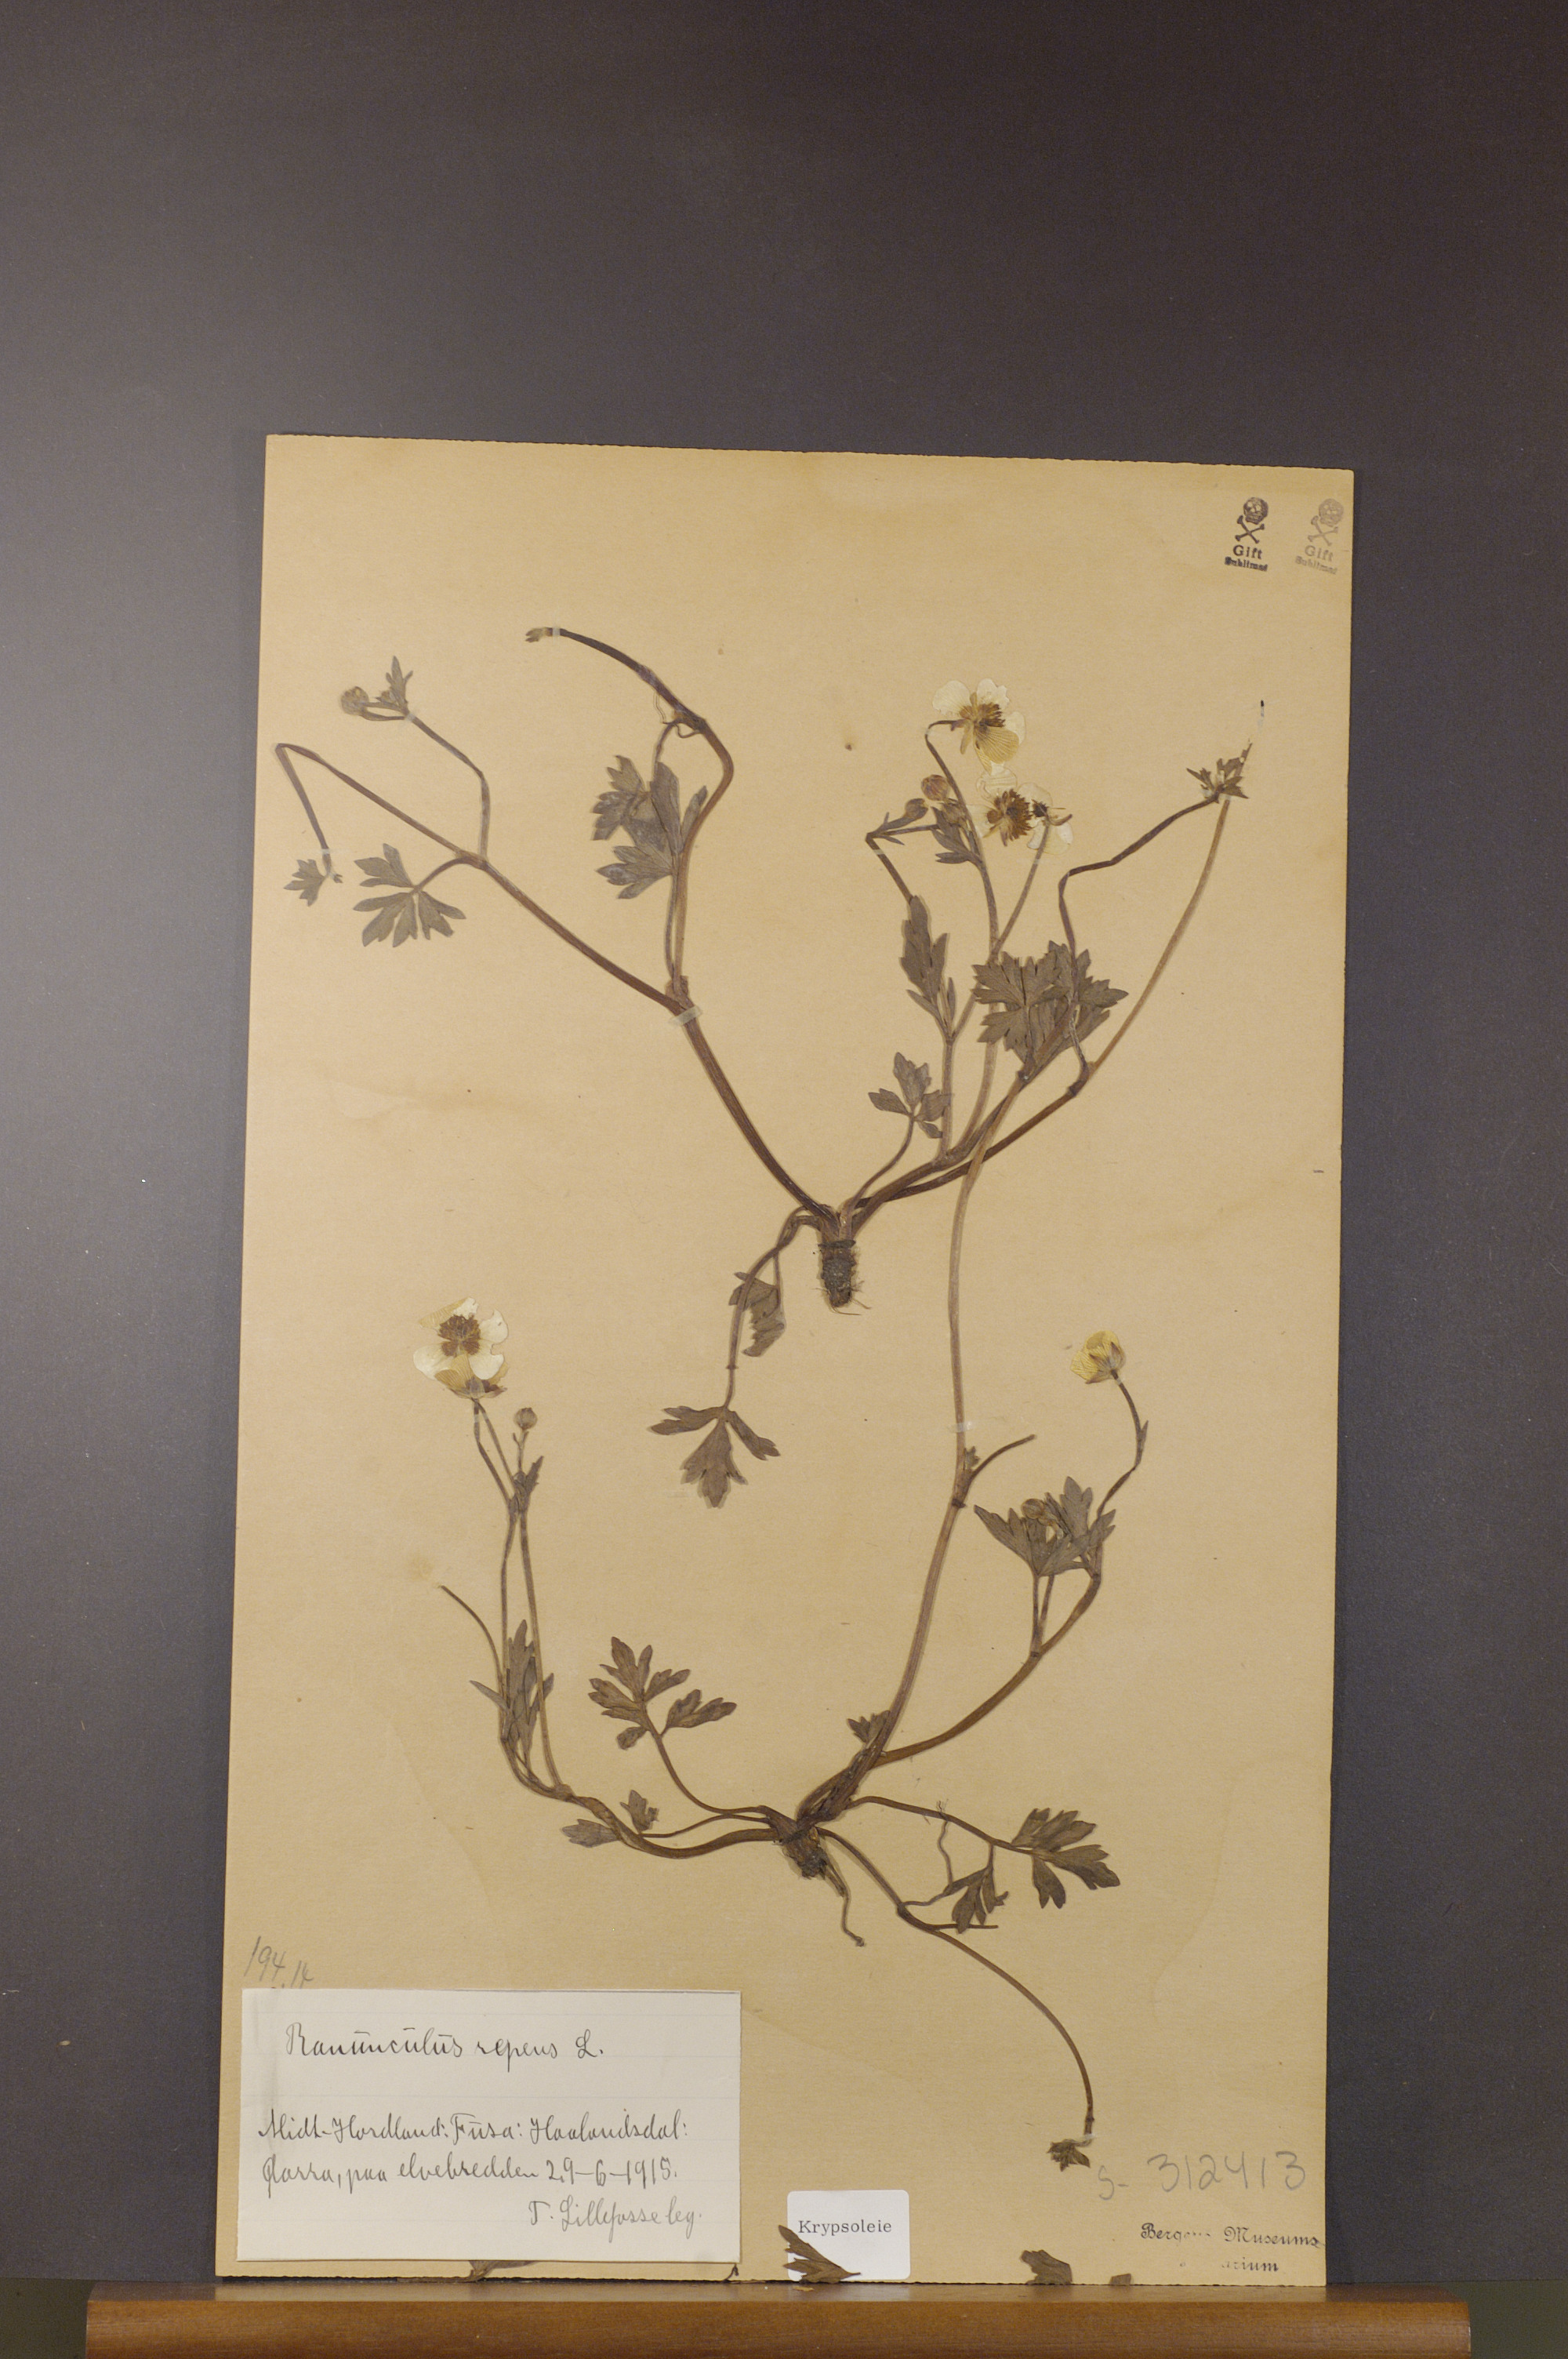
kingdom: Plantae
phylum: Tracheophyta
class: Magnoliopsida
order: Ranunculales
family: Ranunculaceae
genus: Ranunculus
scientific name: Ranunculus repens
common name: Creeping buttercup
